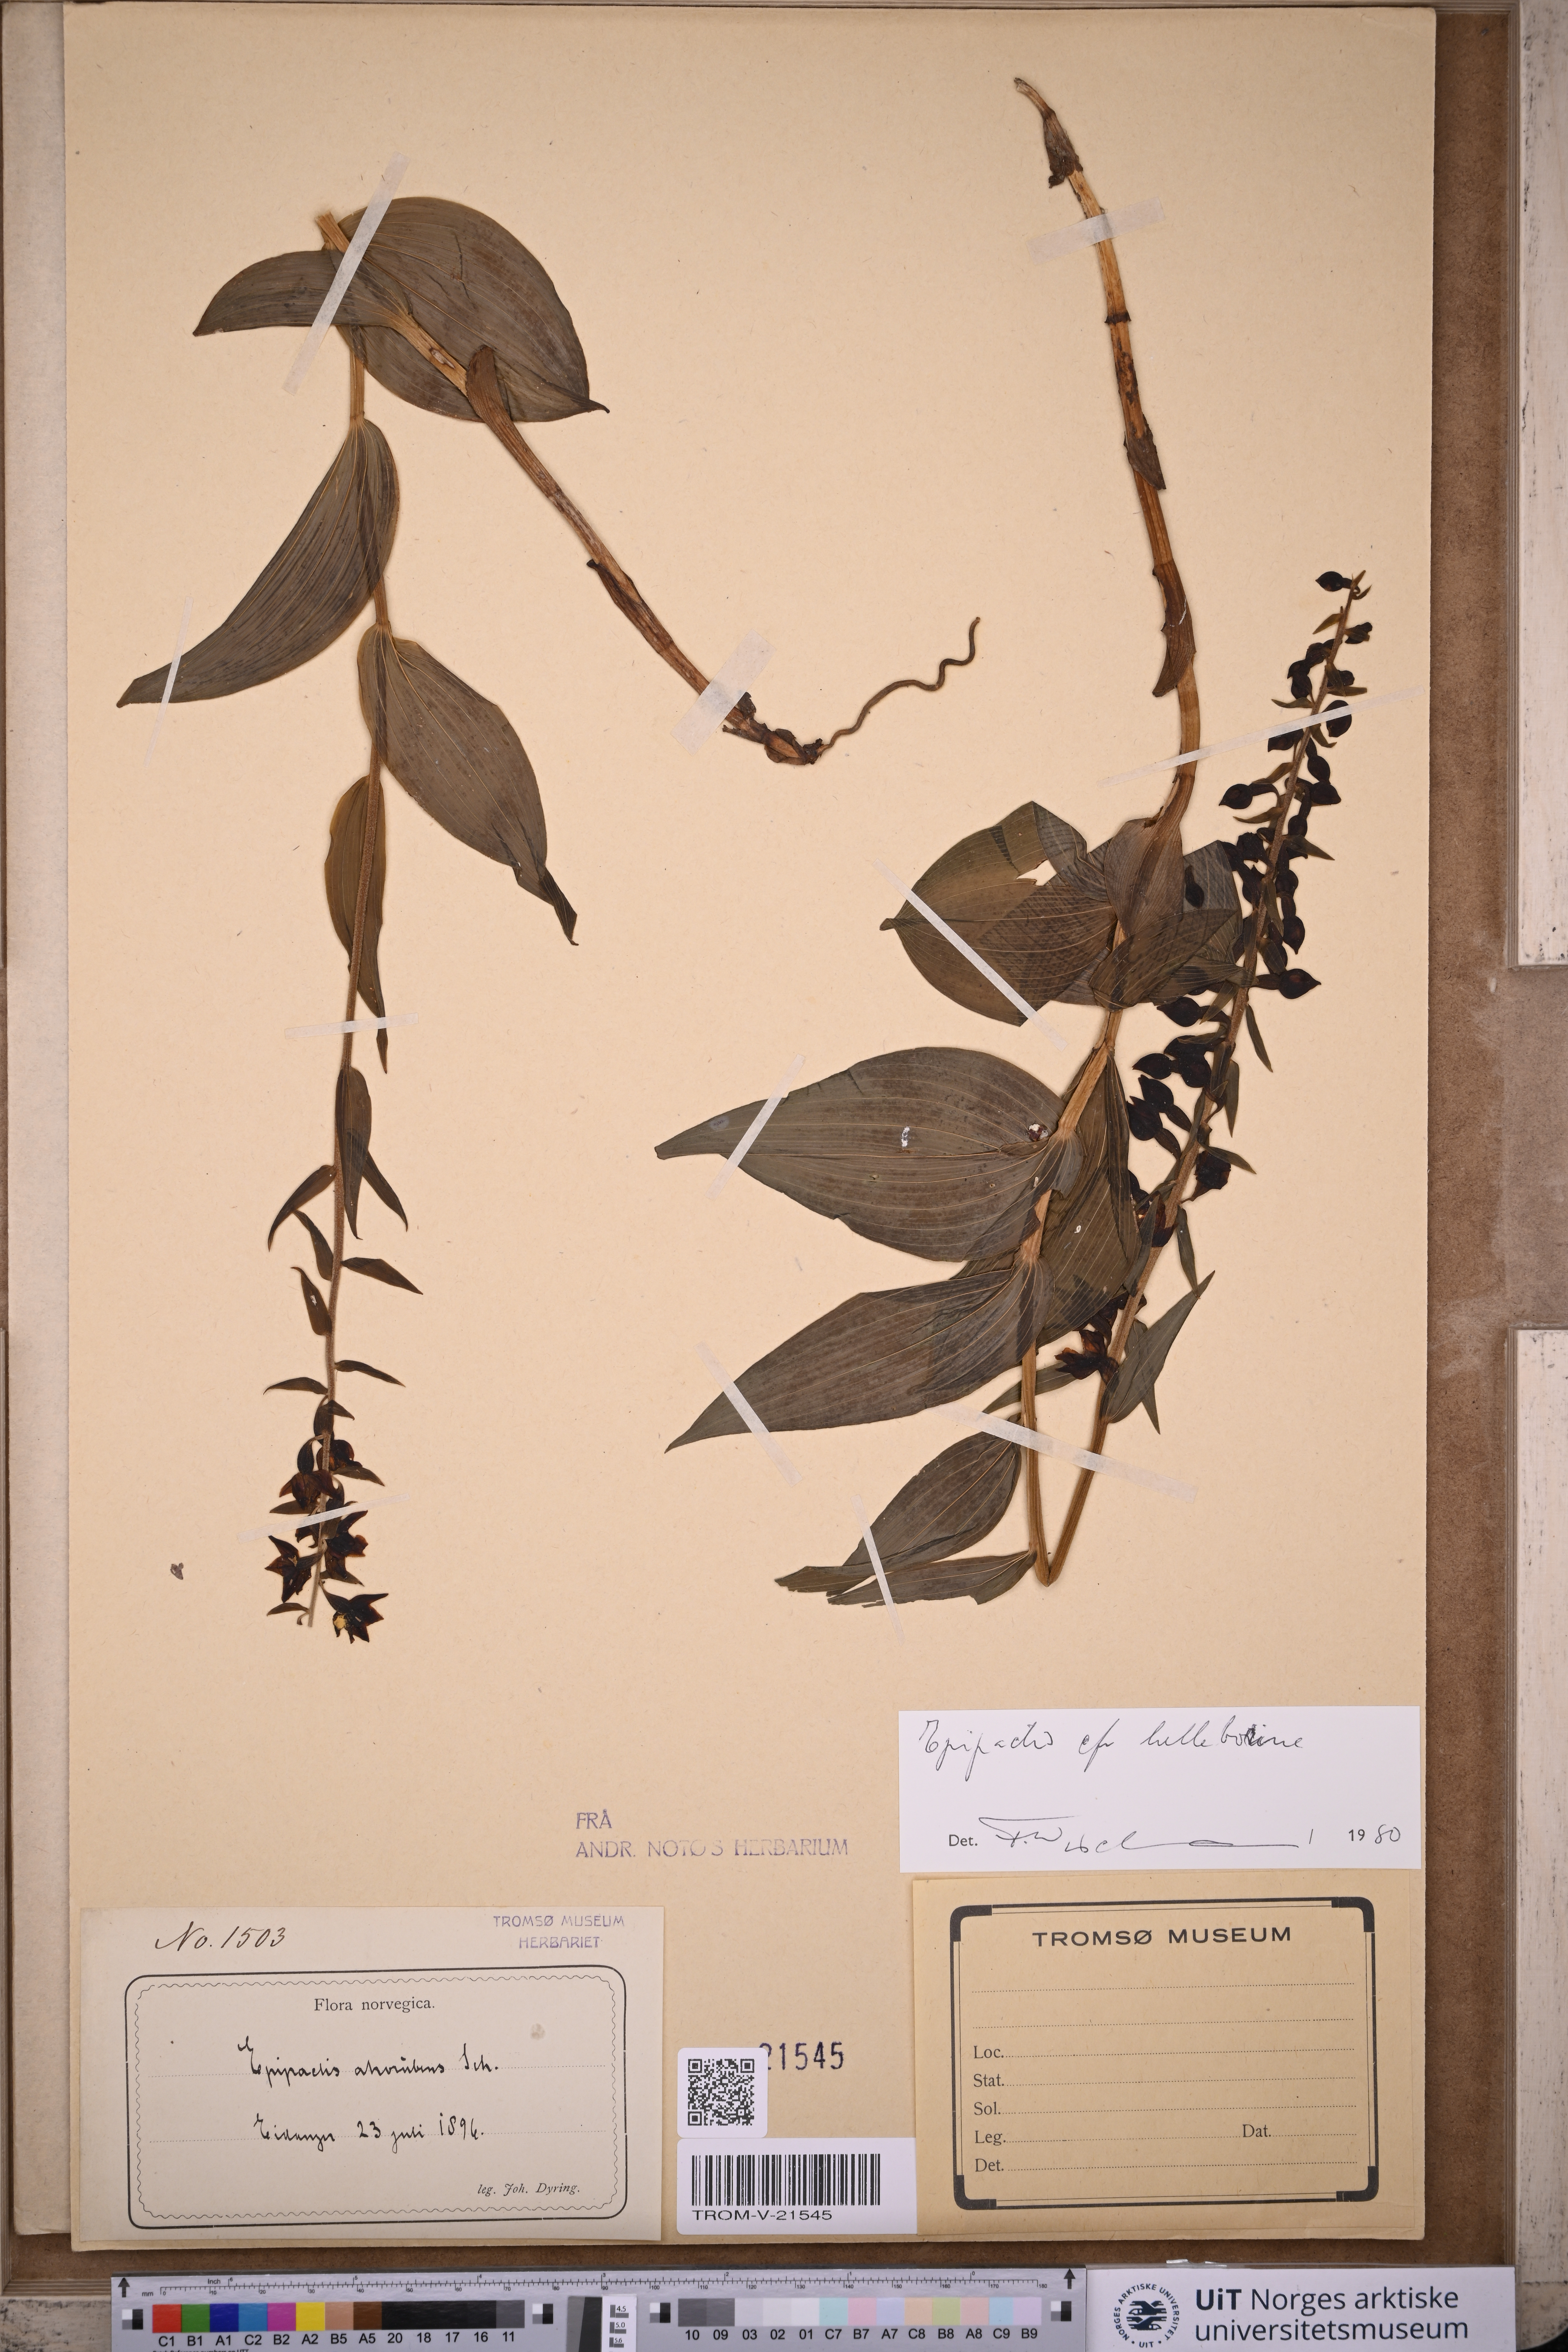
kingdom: Plantae
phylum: Tracheophyta
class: Liliopsida
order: Asparagales
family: Orchidaceae
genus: Epipactis
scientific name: Epipactis helleborine
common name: Broad-leaved helleborine
